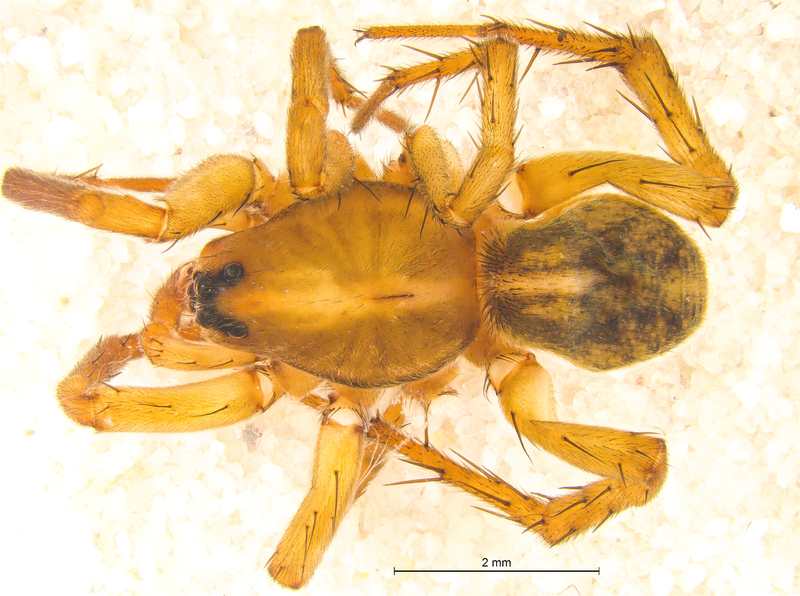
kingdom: Animalia
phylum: Arthropoda
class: Arachnida
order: Araneae
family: Lycosidae
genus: Trochosa
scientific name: Trochosa ruricola
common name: Spider
